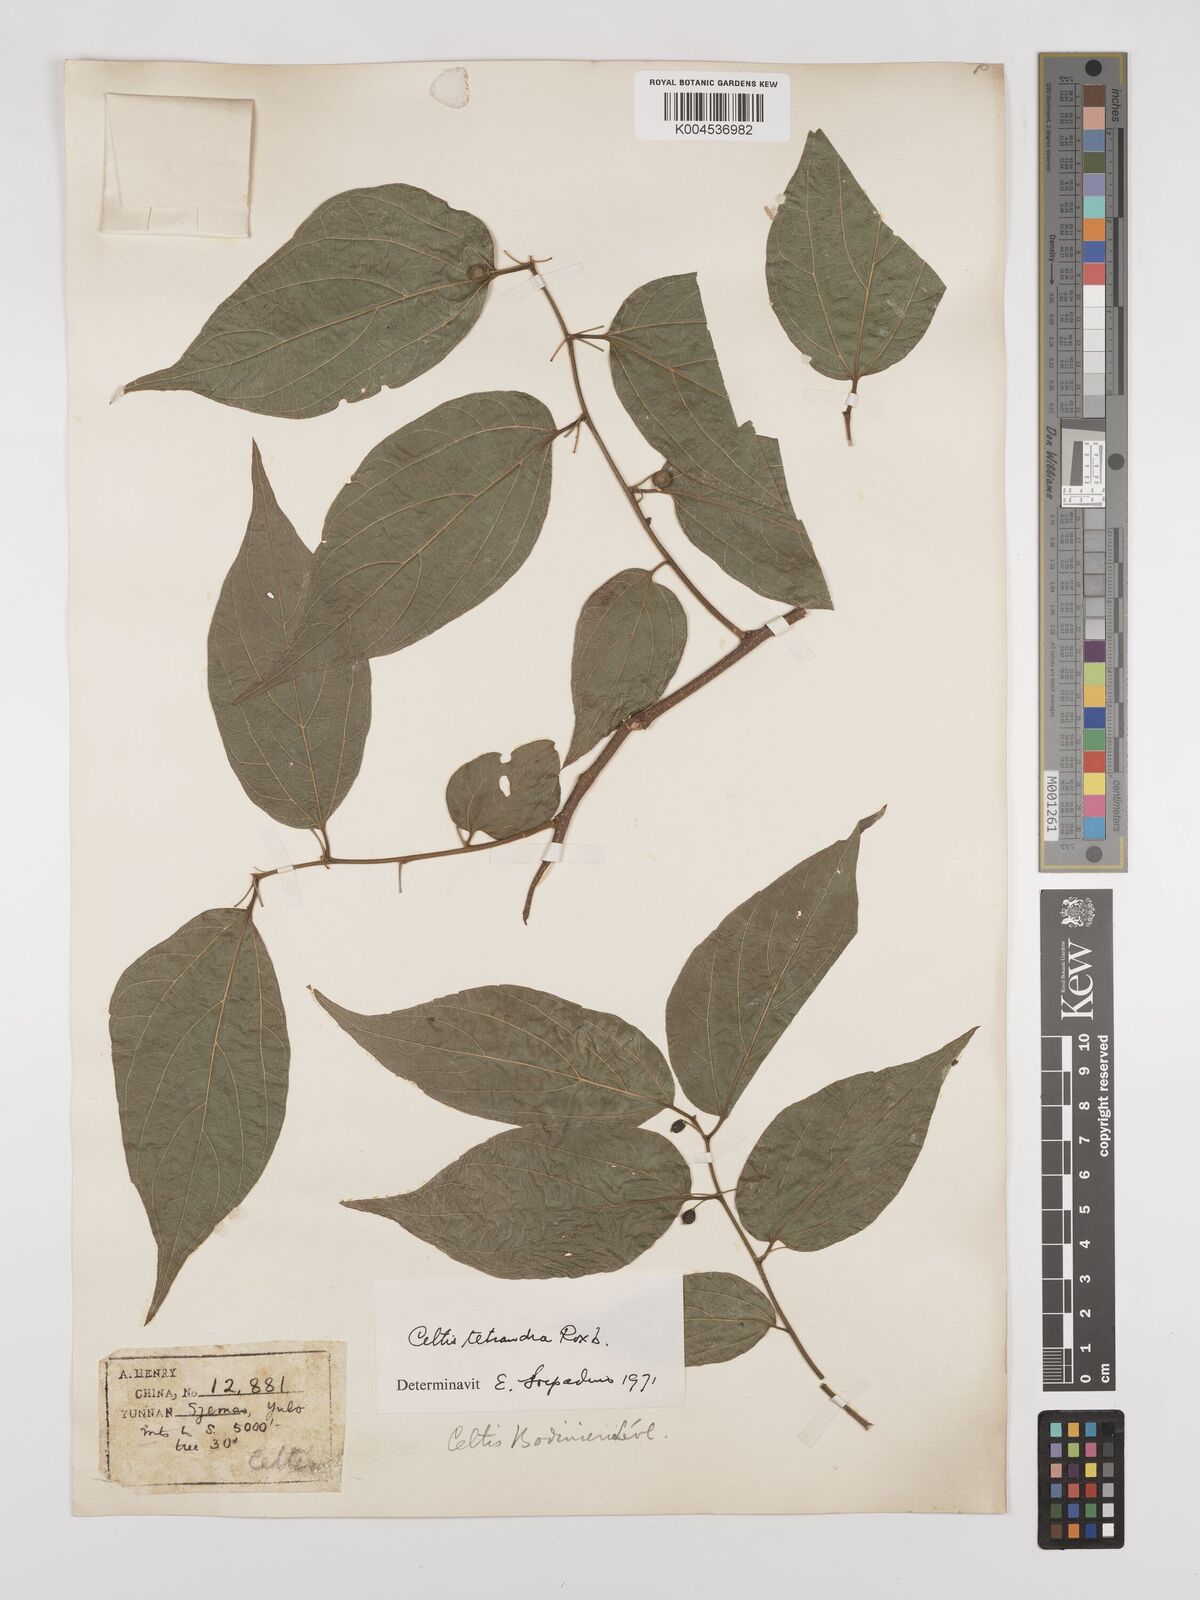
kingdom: Plantae
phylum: Tracheophyta
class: Magnoliopsida
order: Rosales
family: Cannabaceae
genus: Celtis
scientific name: Celtis tetrandra
